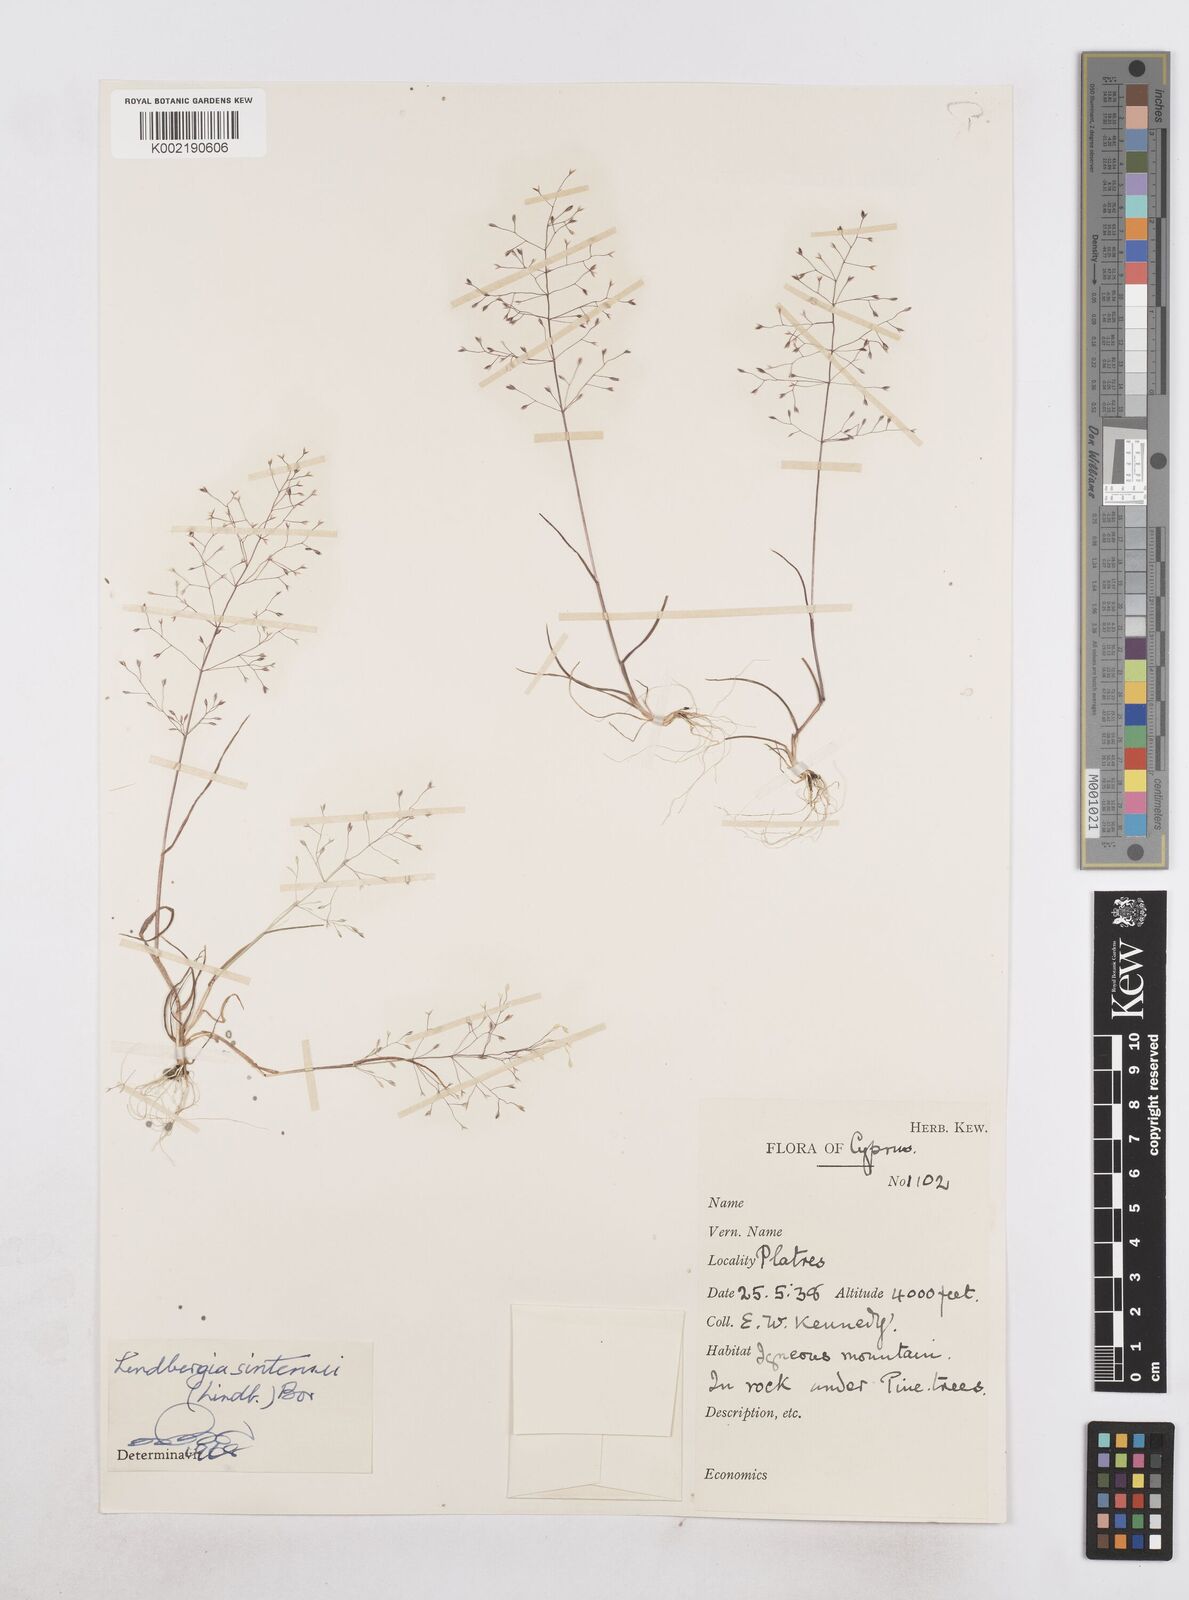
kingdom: Plantae
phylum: Tracheophyta
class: Liliopsida
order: Poales
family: Poaceae
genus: Poa
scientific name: Poa sintenisii
